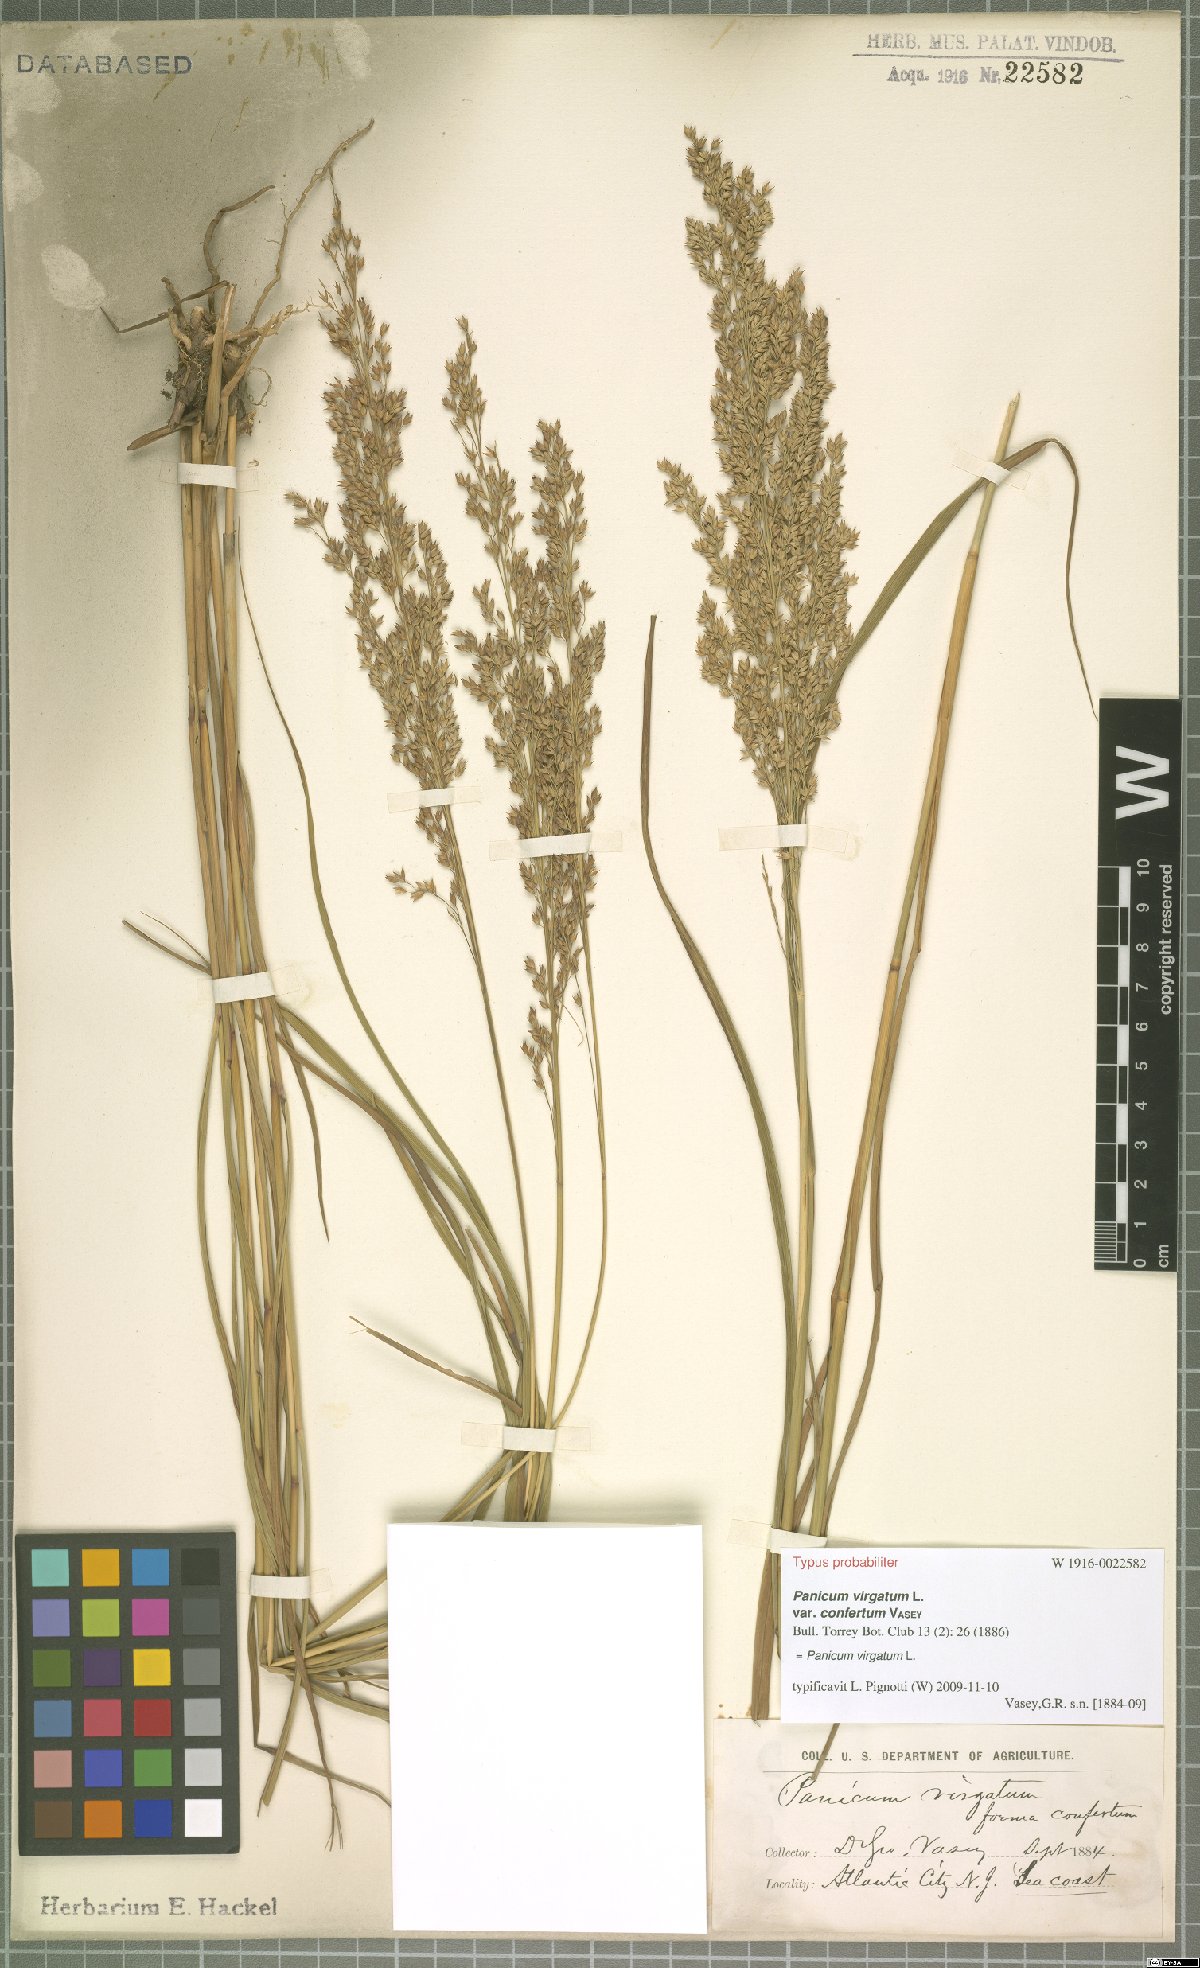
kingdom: Plantae
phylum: Tracheophyta
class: Liliopsida
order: Poales
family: Poaceae
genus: Panicum
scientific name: Panicum virgatum
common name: Switchgrass
